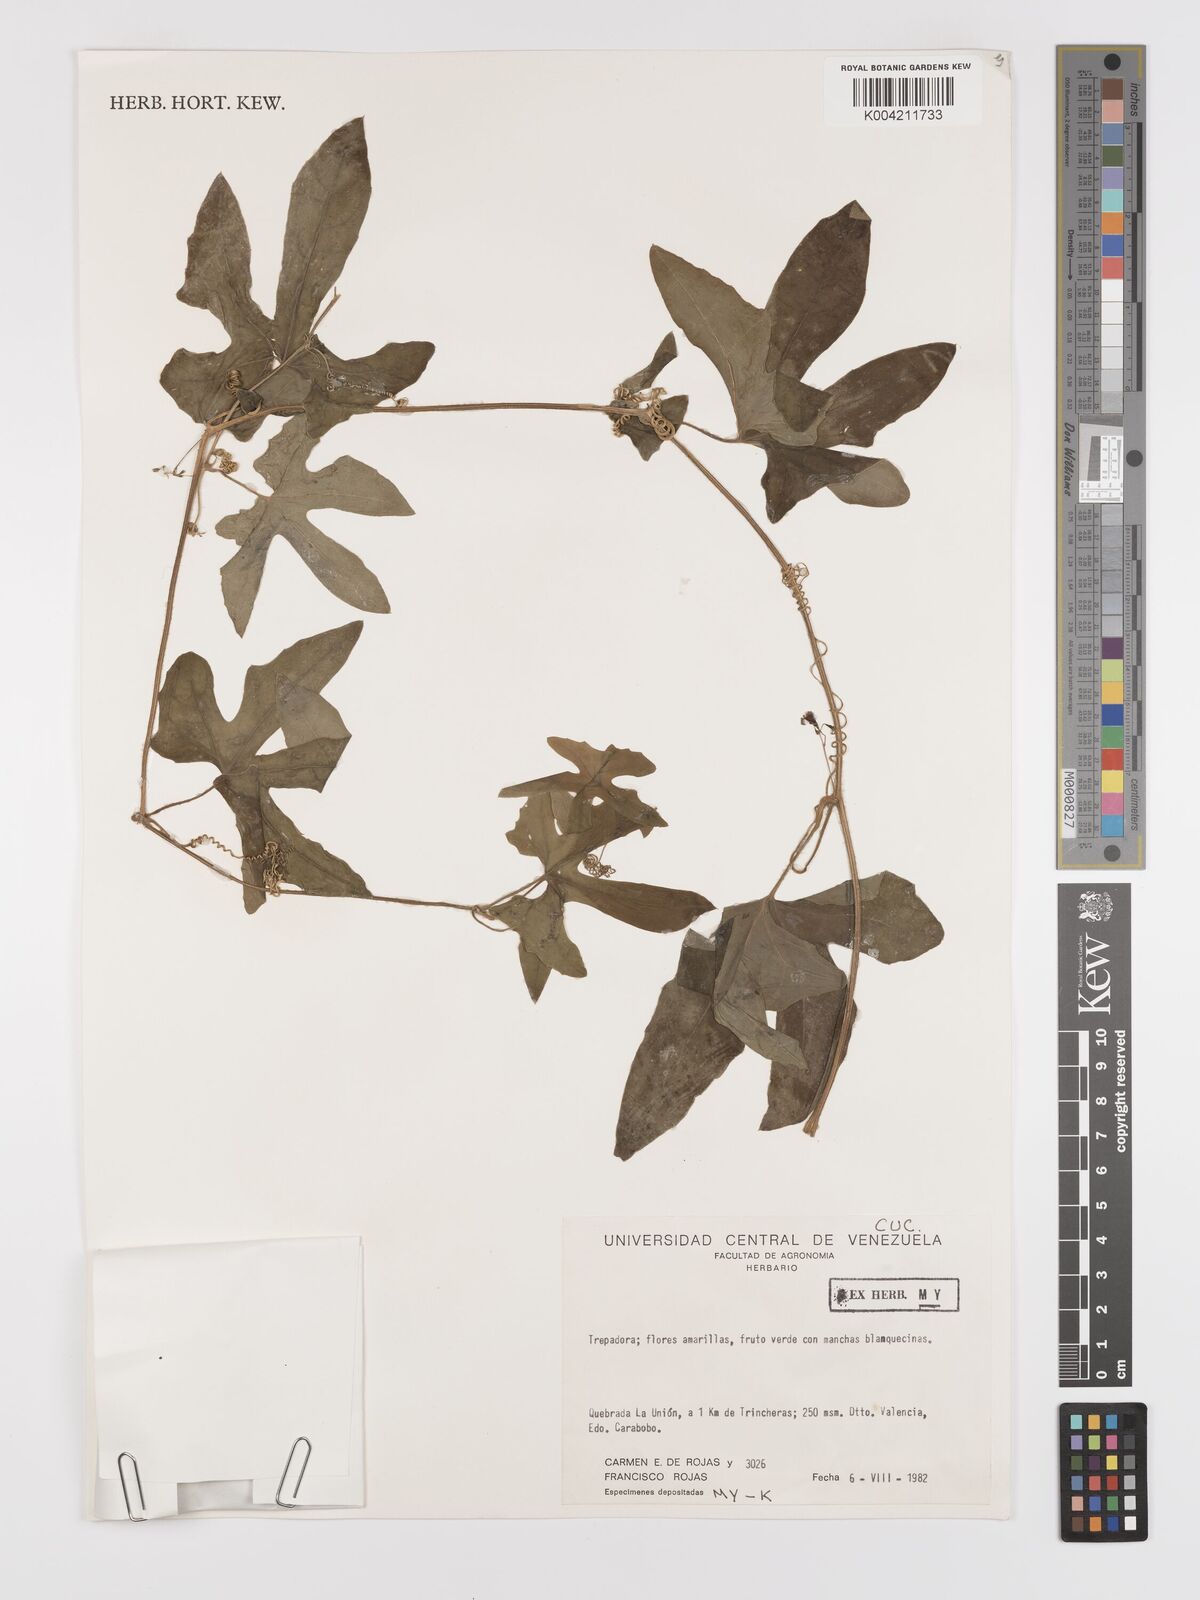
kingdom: Plantae
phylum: Tracheophyta
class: Magnoliopsida
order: Cucurbitales
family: Cucurbitaceae
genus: Melothria
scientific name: Melothria trilobata
